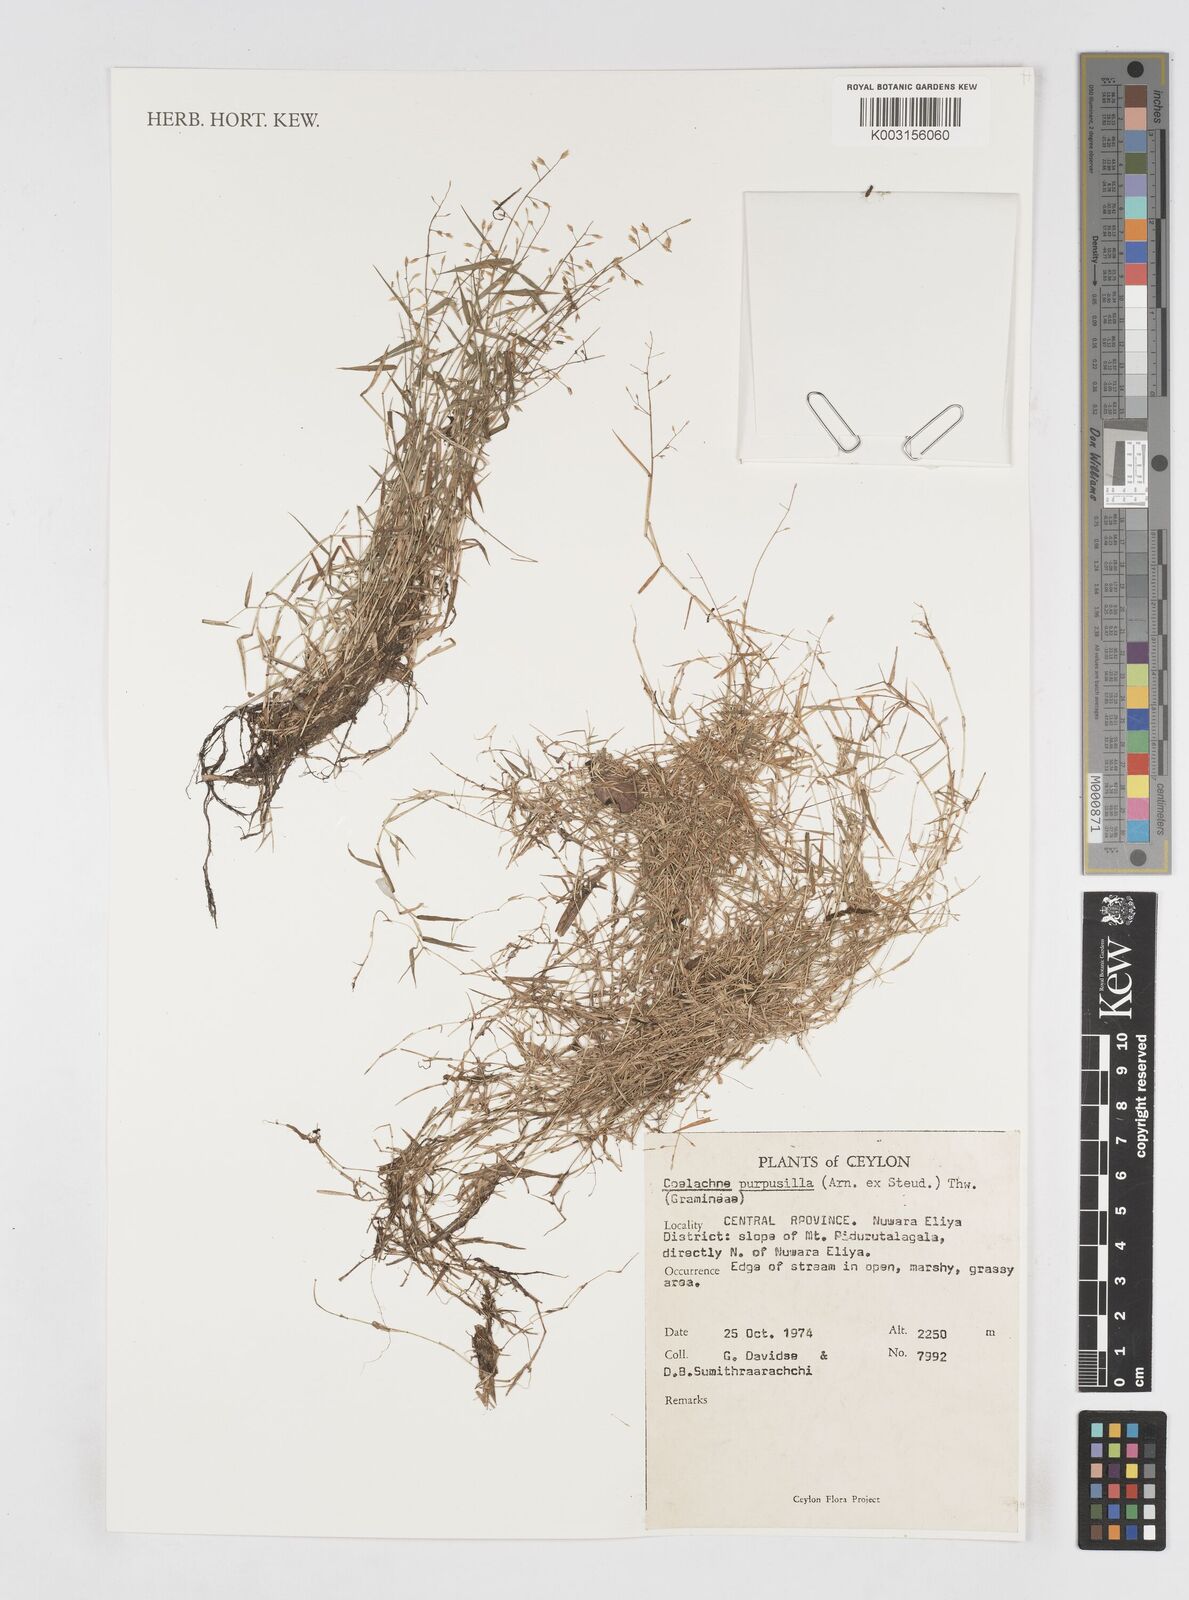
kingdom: Plantae
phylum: Tracheophyta
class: Liliopsida
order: Poales
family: Poaceae
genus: Coelachne
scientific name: Coelachne perpusilla
